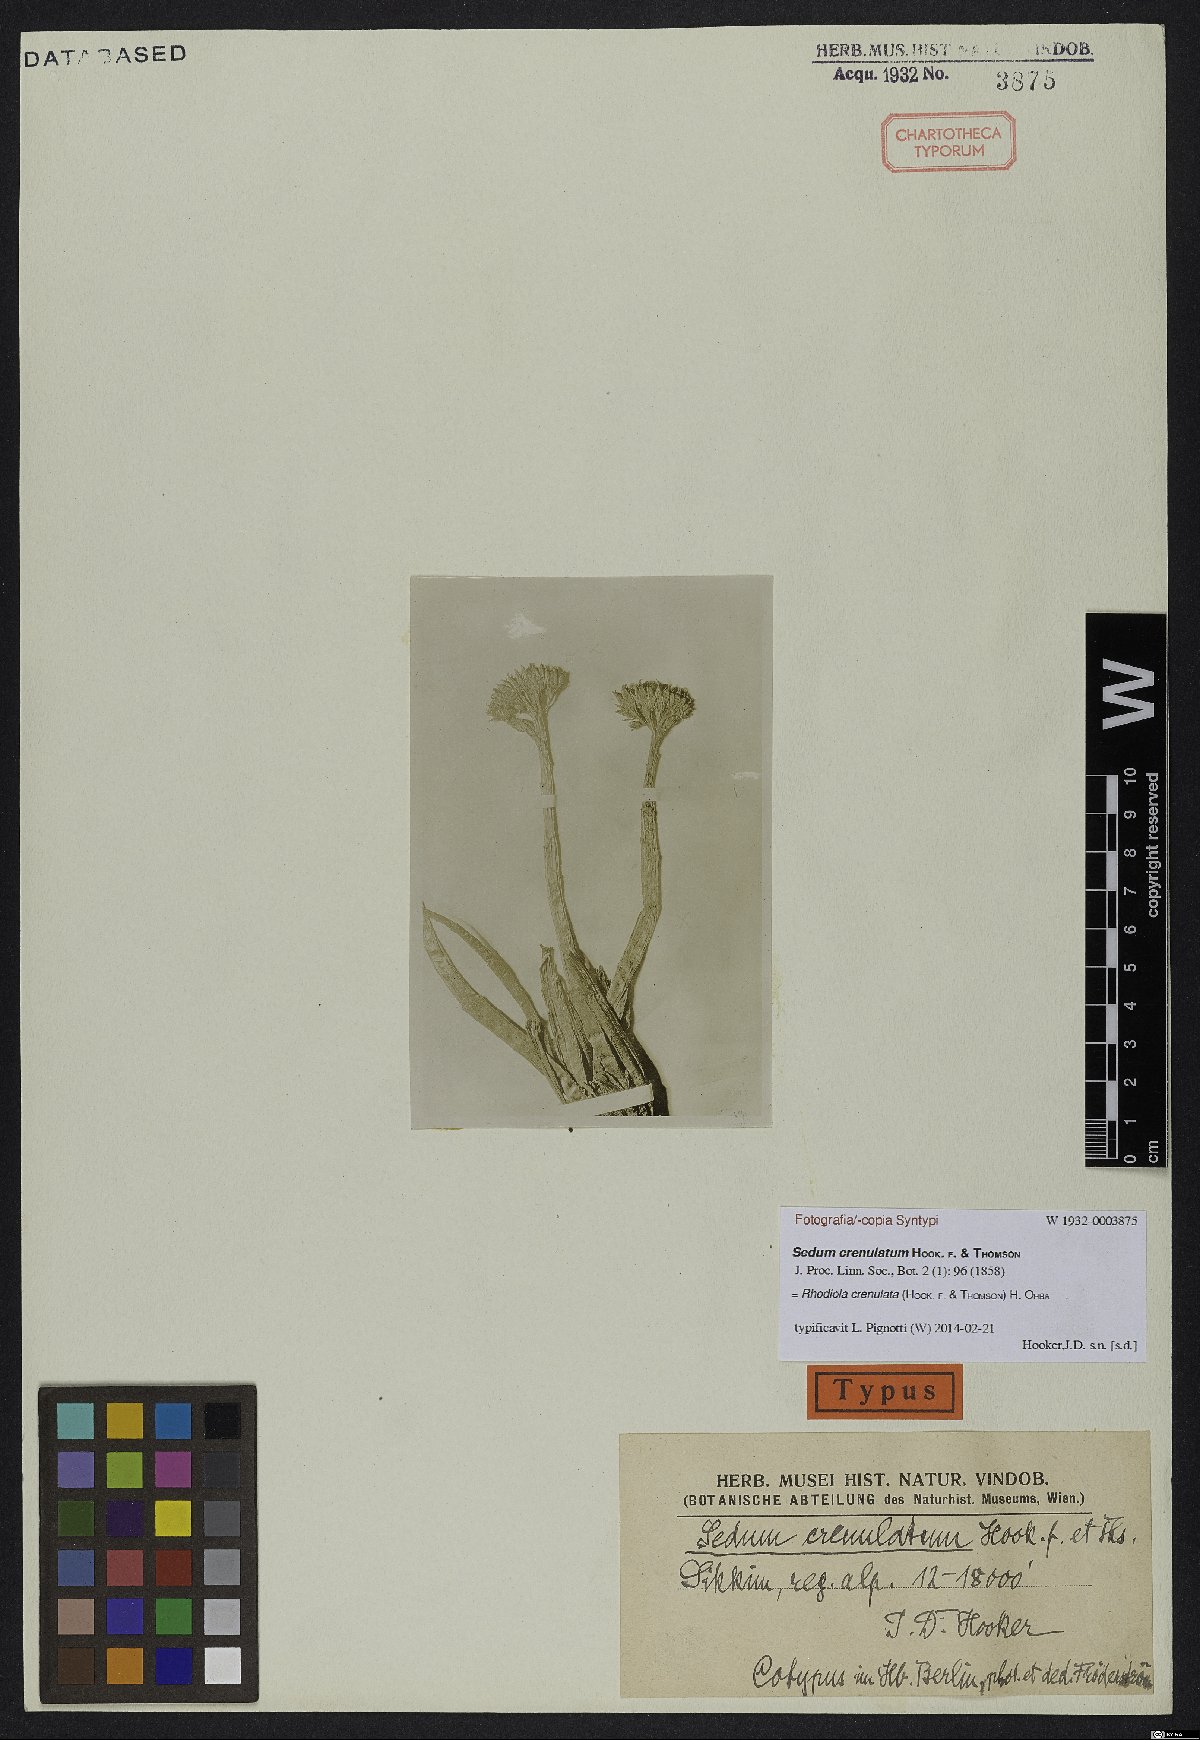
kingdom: Plantae
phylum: Tracheophyta
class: Magnoliopsida
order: Saxifragales
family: Crassulaceae
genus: Rhodiola
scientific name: Rhodiola crenulata
